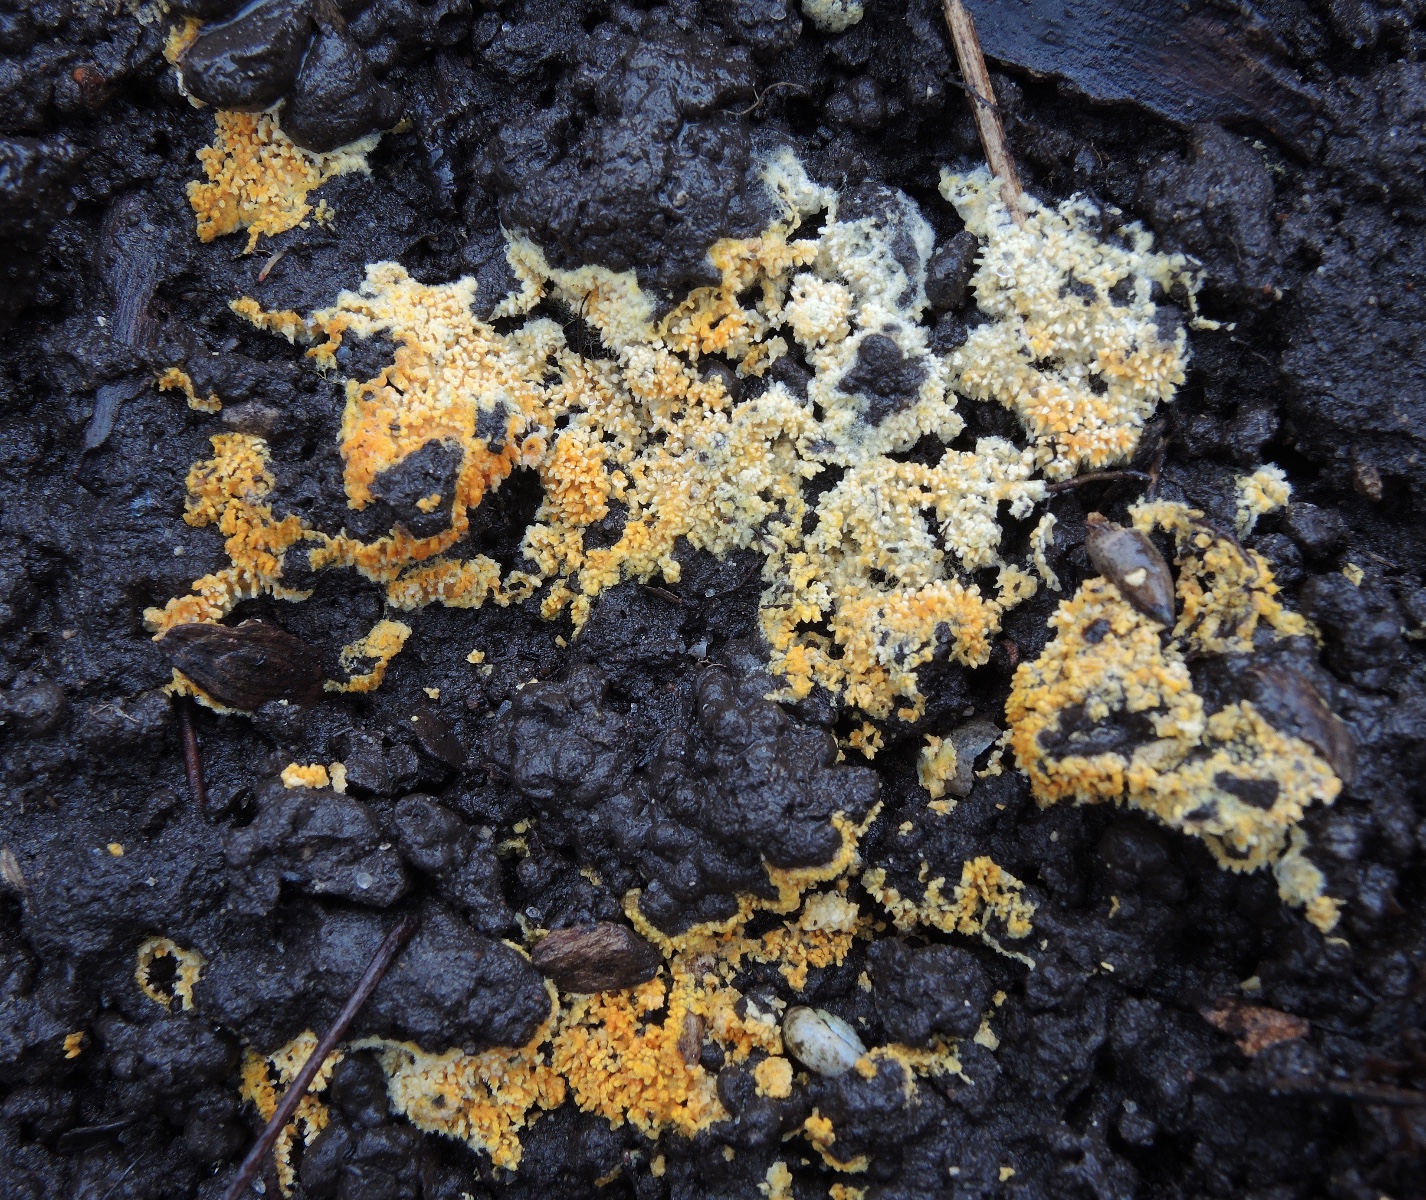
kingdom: Fungi
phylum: Basidiomycota
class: Agaricomycetes
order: Agaricales
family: Stephanosporaceae
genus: Lindtneria
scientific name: Lindtneria panphyliensis
